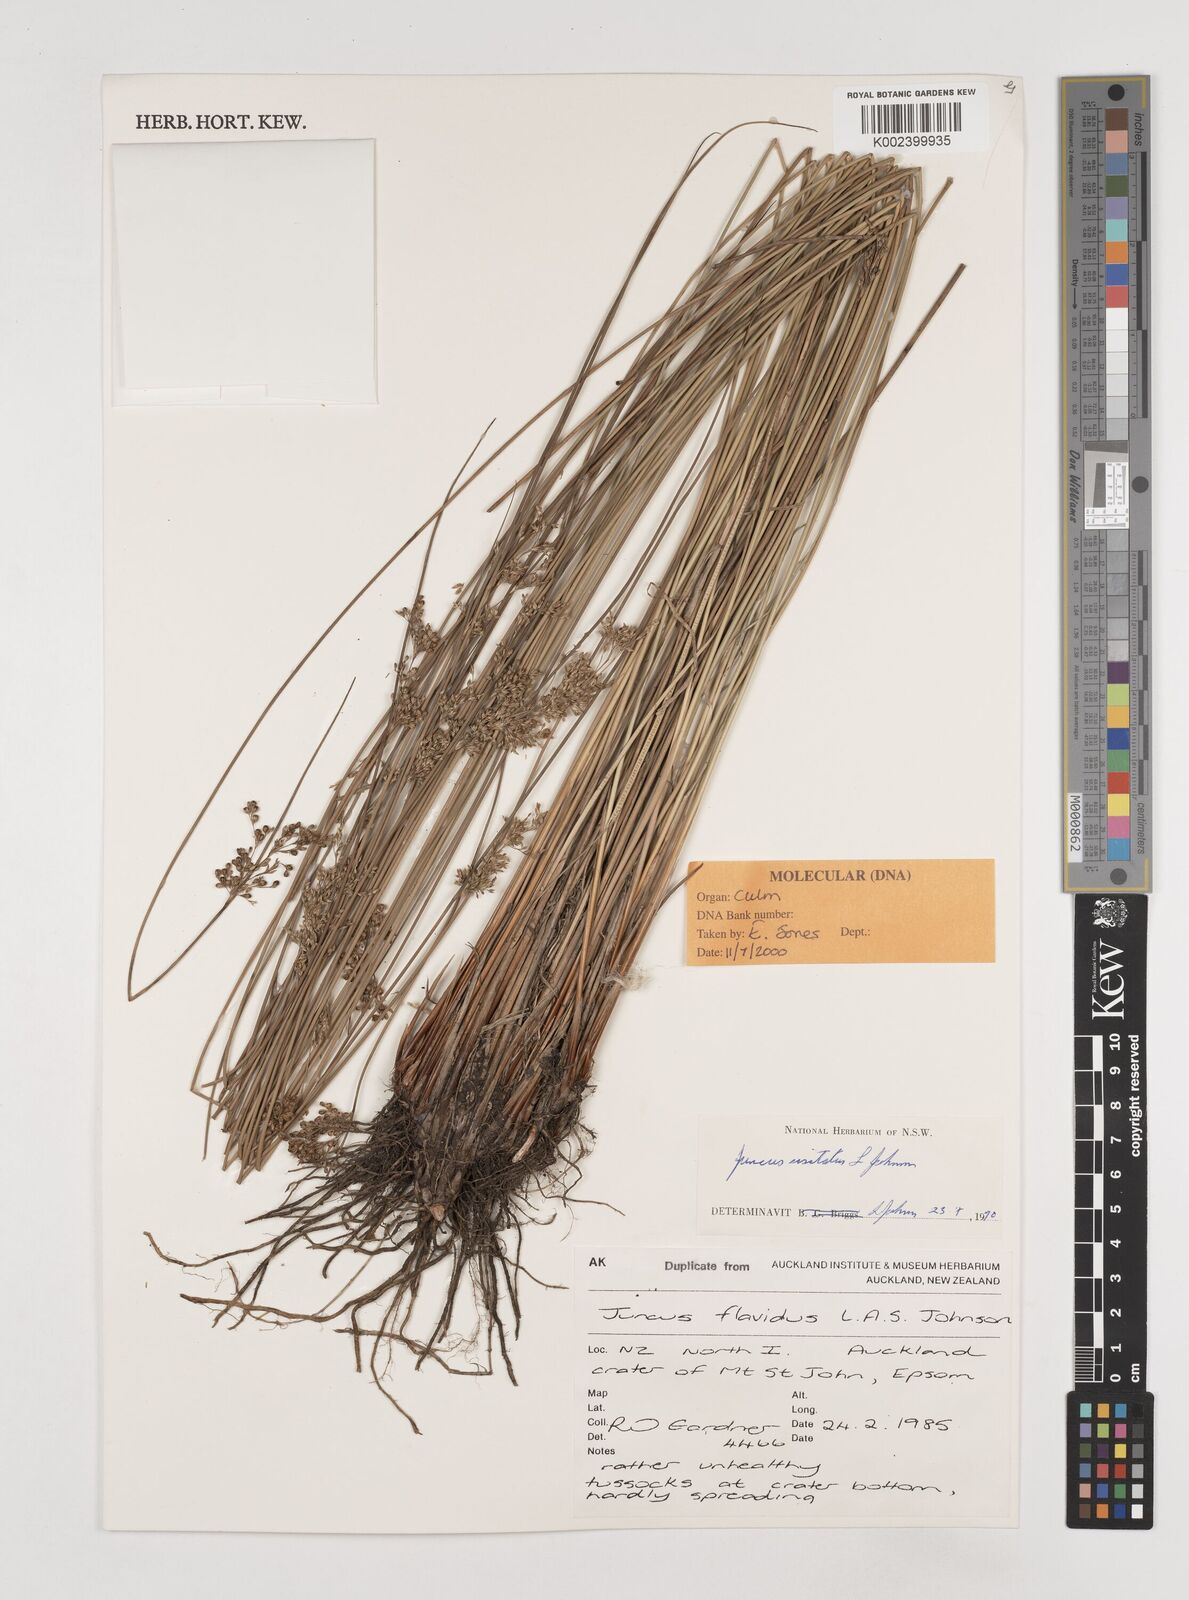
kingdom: Plantae
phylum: Tracheophyta
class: Liliopsida
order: Poales
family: Juncaceae
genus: Juncus
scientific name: Juncus usitatus
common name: Rush
